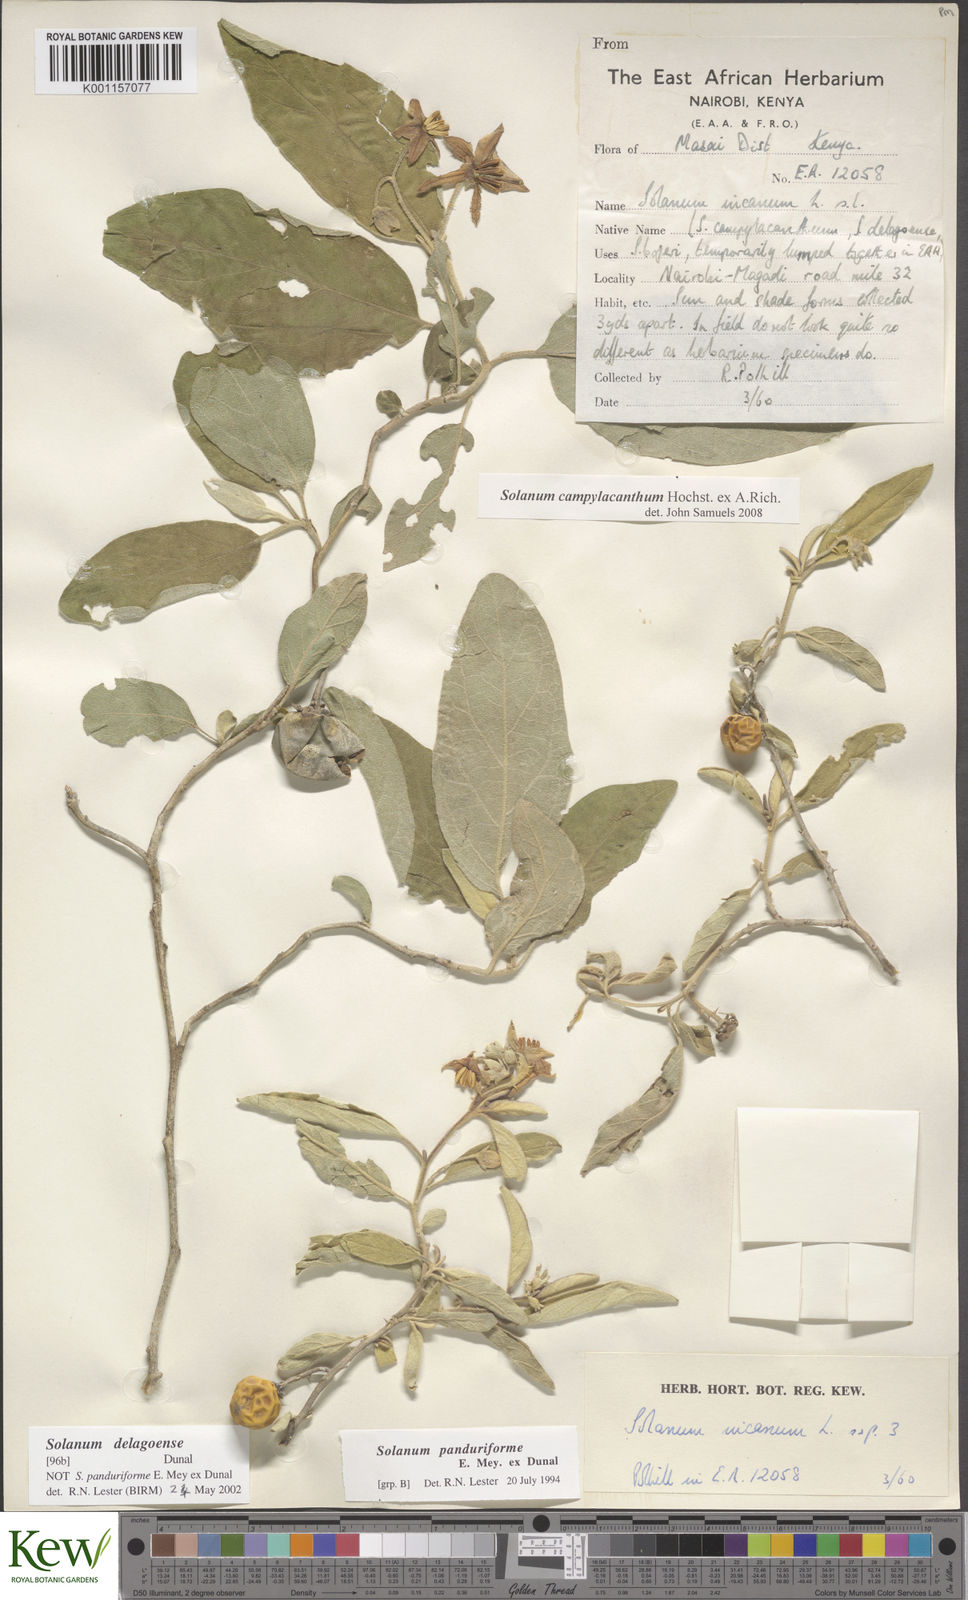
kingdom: Plantae
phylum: Tracheophyta
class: Magnoliopsida
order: Solanales
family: Solanaceae
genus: Solanum
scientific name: Solanum campylacanthum
